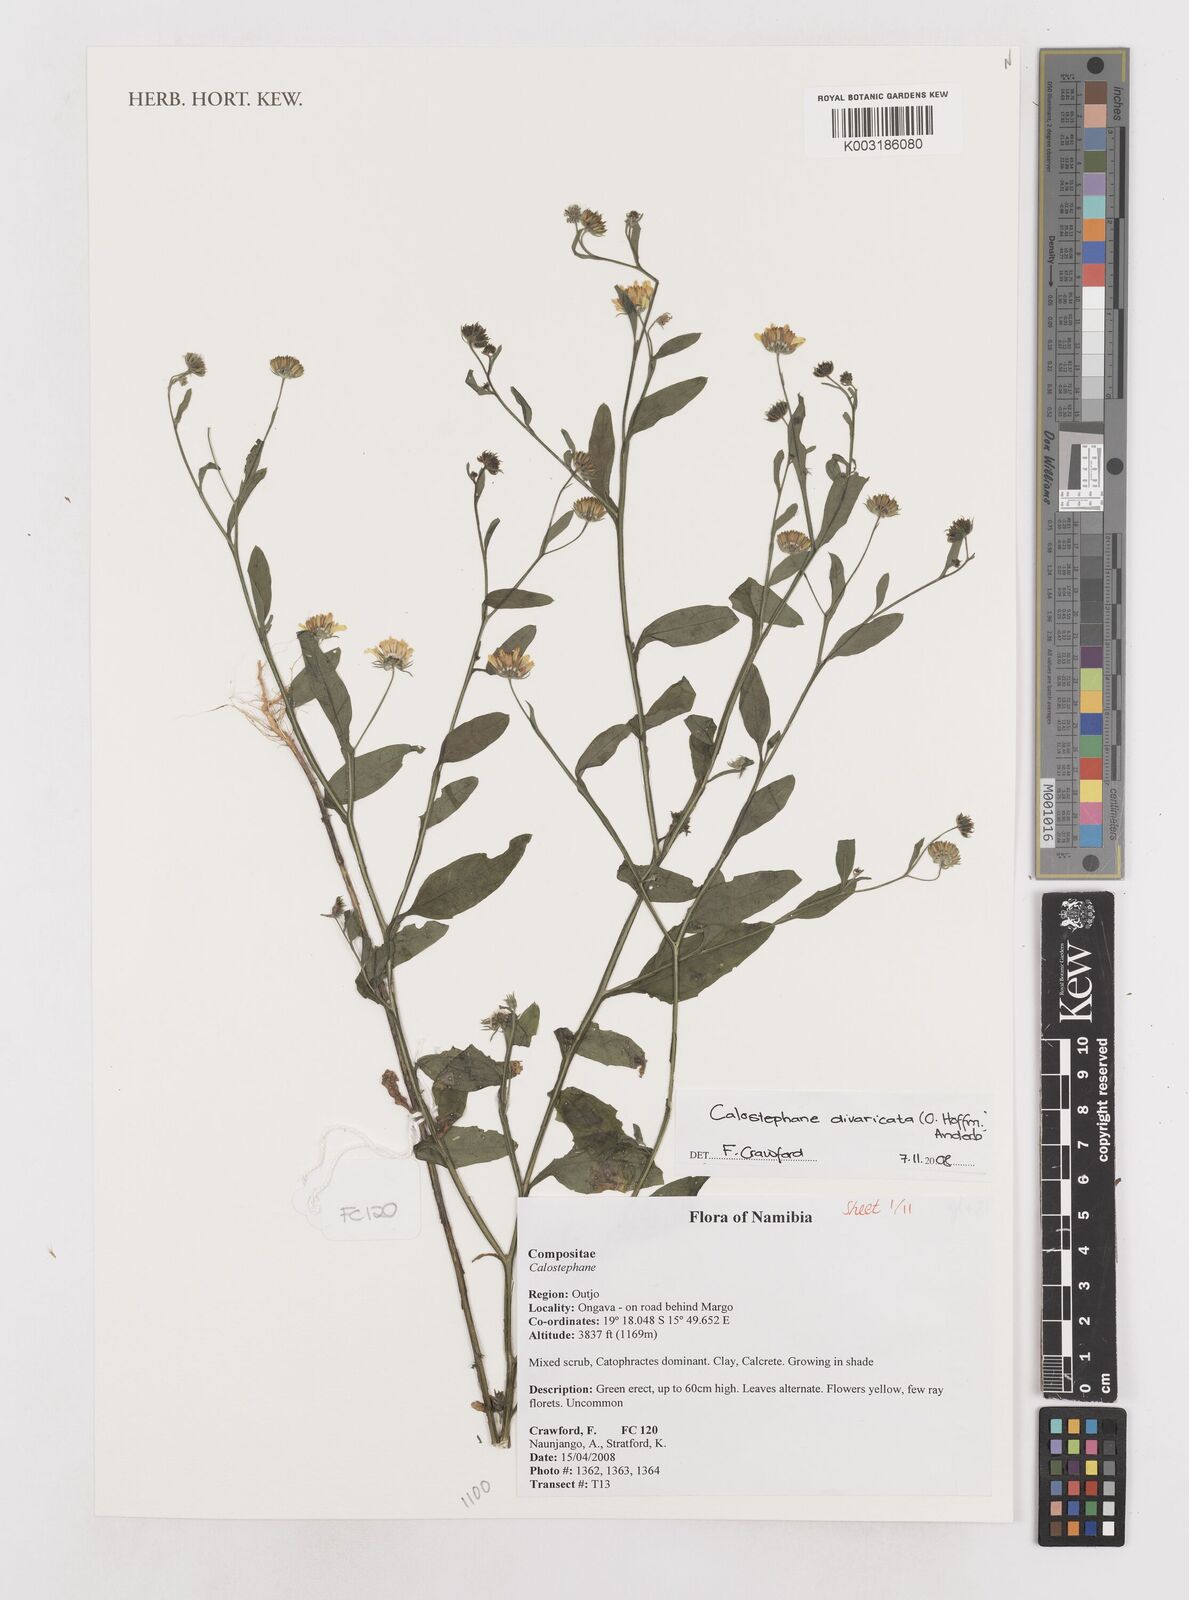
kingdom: Plantae
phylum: Tracheophyta
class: Magnoliopsida
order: Asterales
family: Asteraceae
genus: Calostephane
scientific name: Calostephane divaricata
